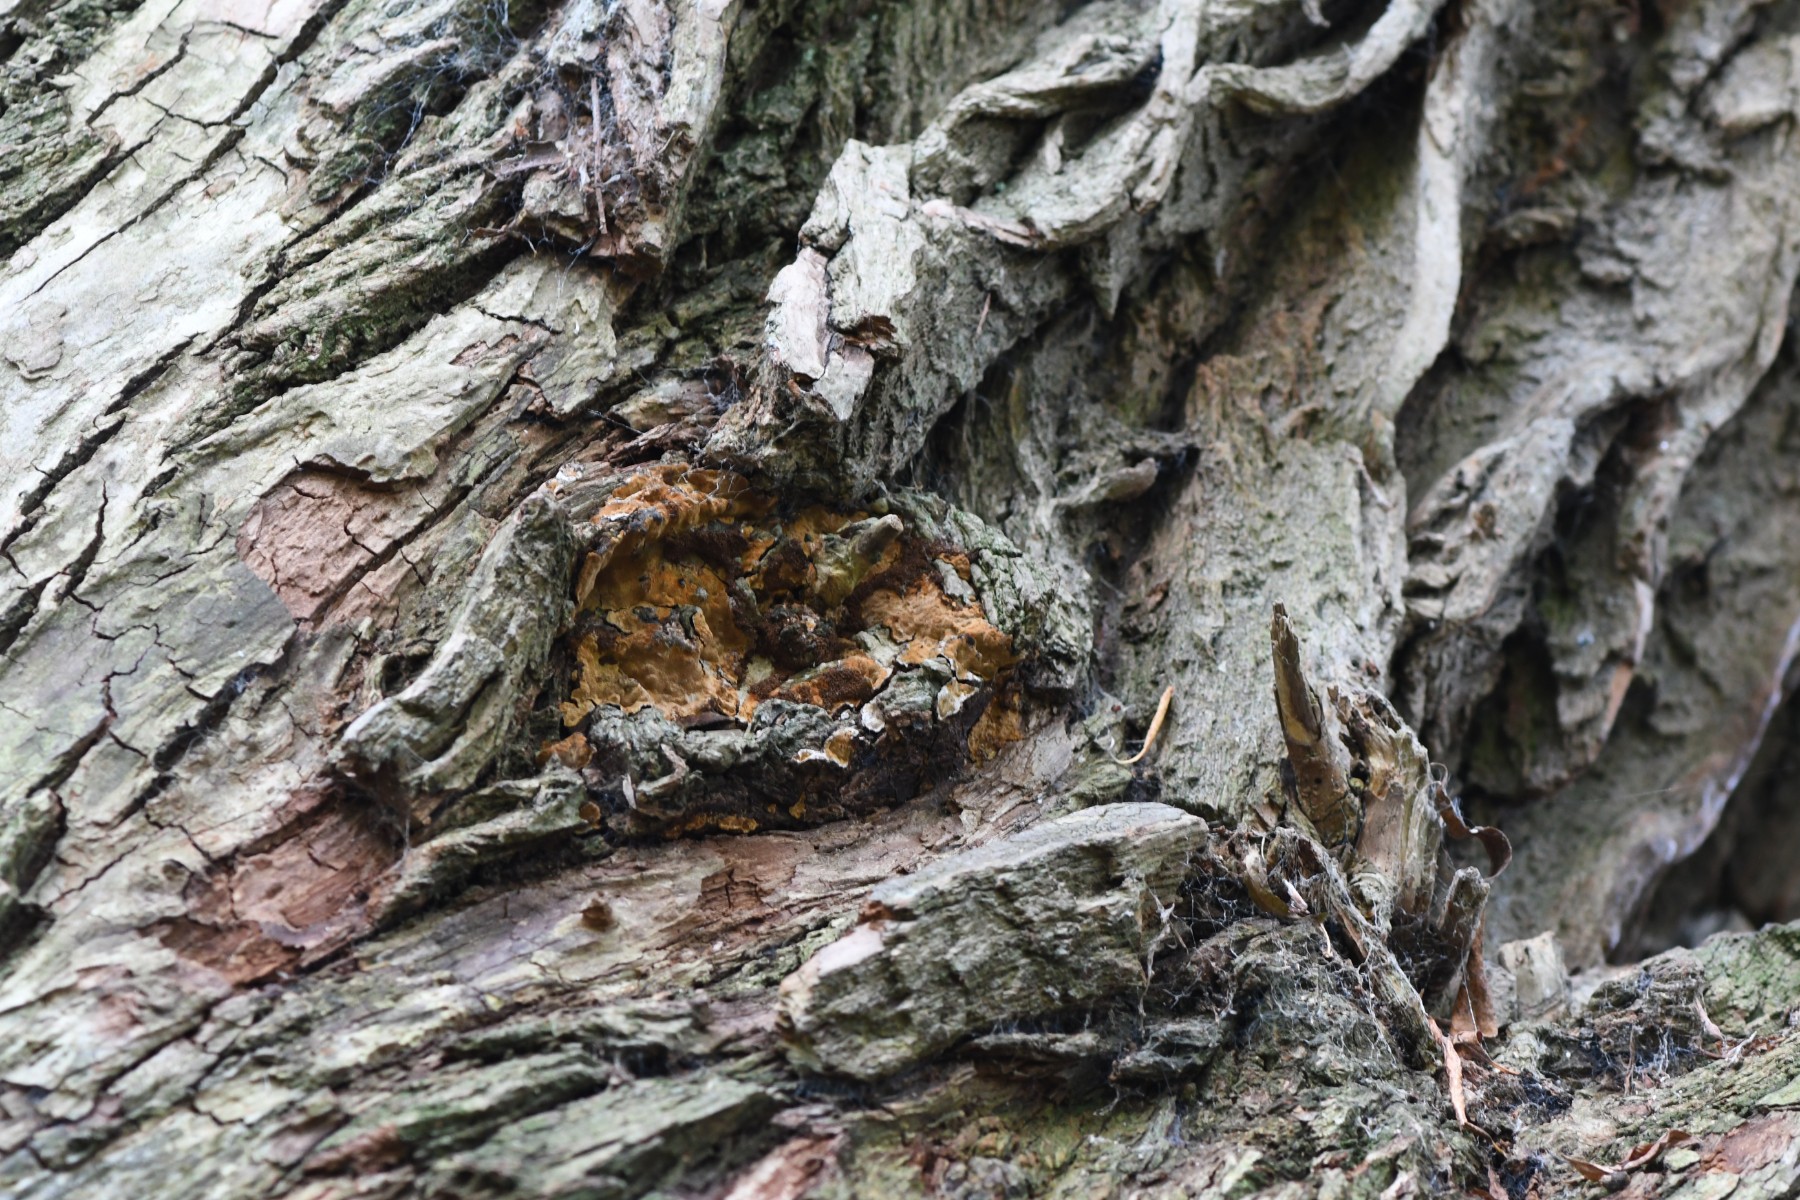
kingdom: Fungi
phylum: Basidiomycota
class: Agaricomycetes
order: Hymenochaetales
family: Hymenochaetaceae
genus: Phellinopsis
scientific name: Phellinopsis conchata
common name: pile-ildporesvamp
